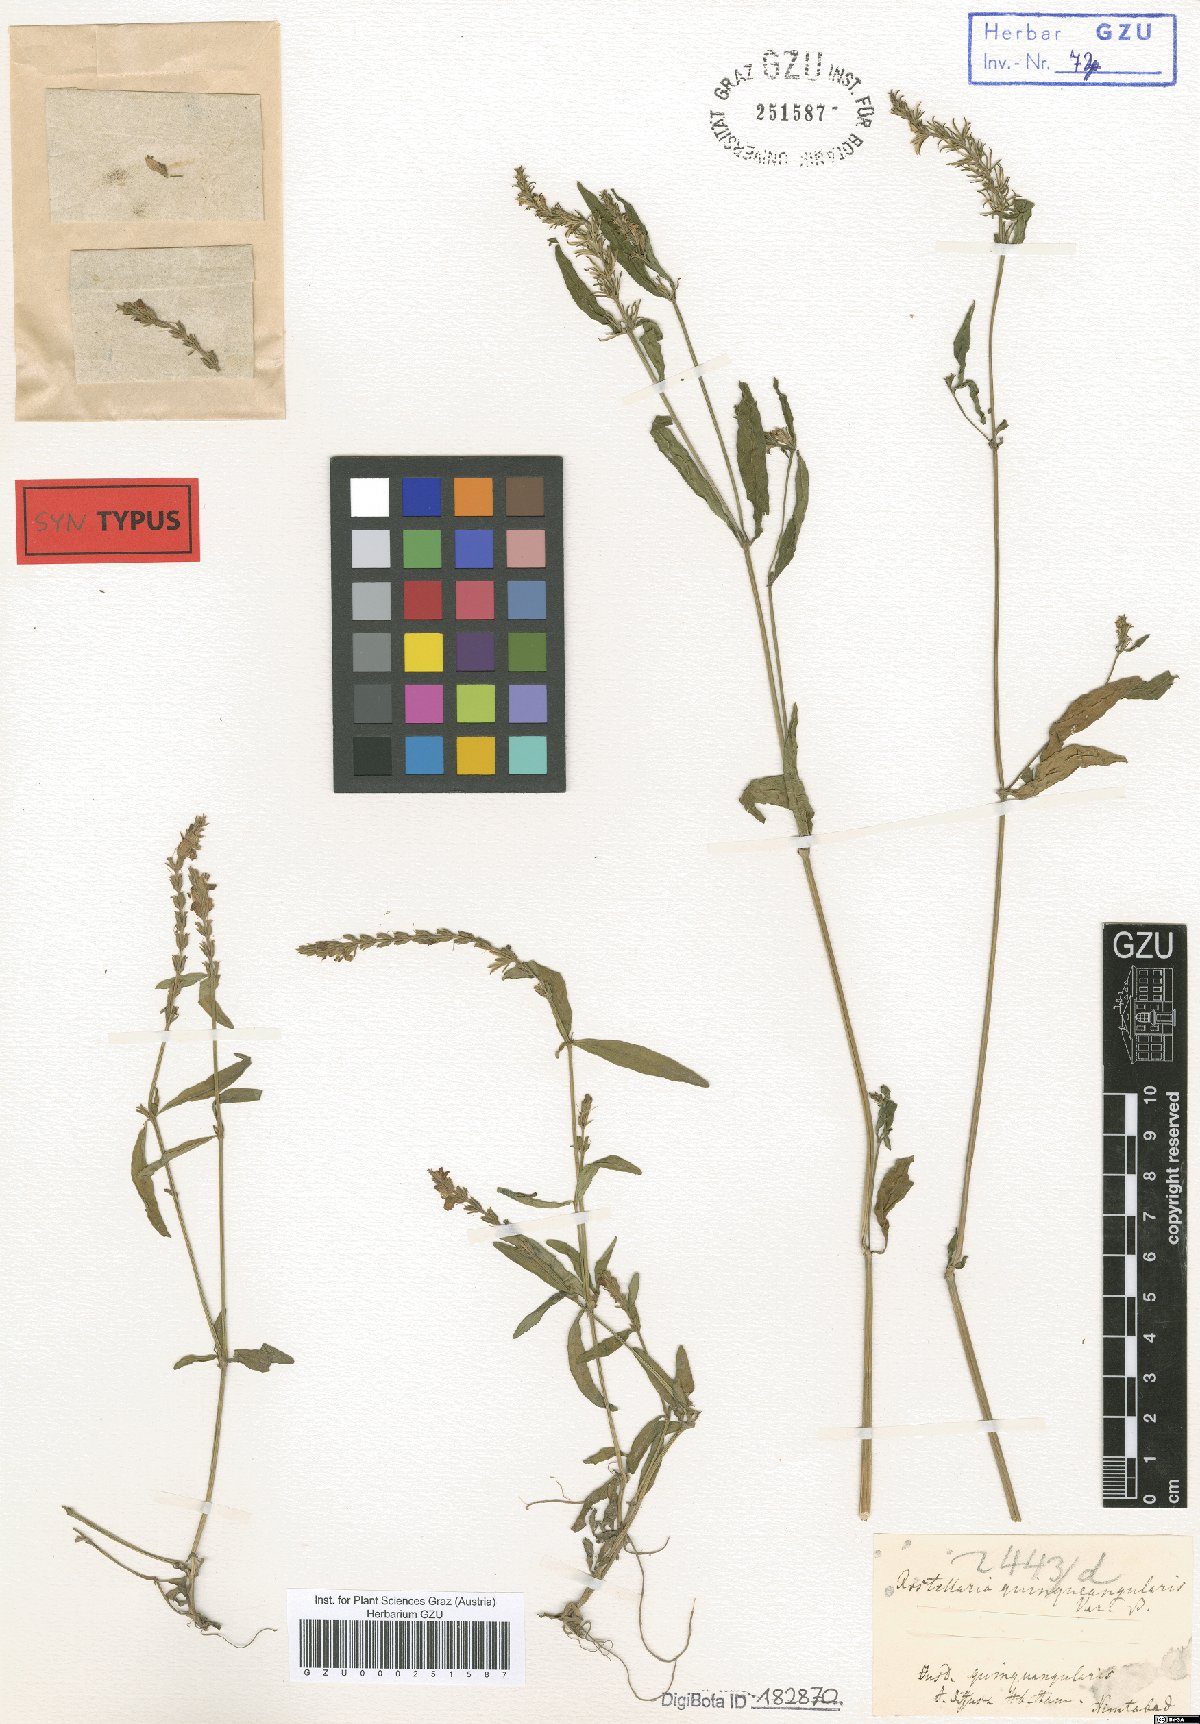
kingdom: Plantae
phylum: Tracheophyta
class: Magnoliopsida
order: Lamiales
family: Acanthaceae
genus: Rostellularia
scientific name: Rostellularia quinquangularis
